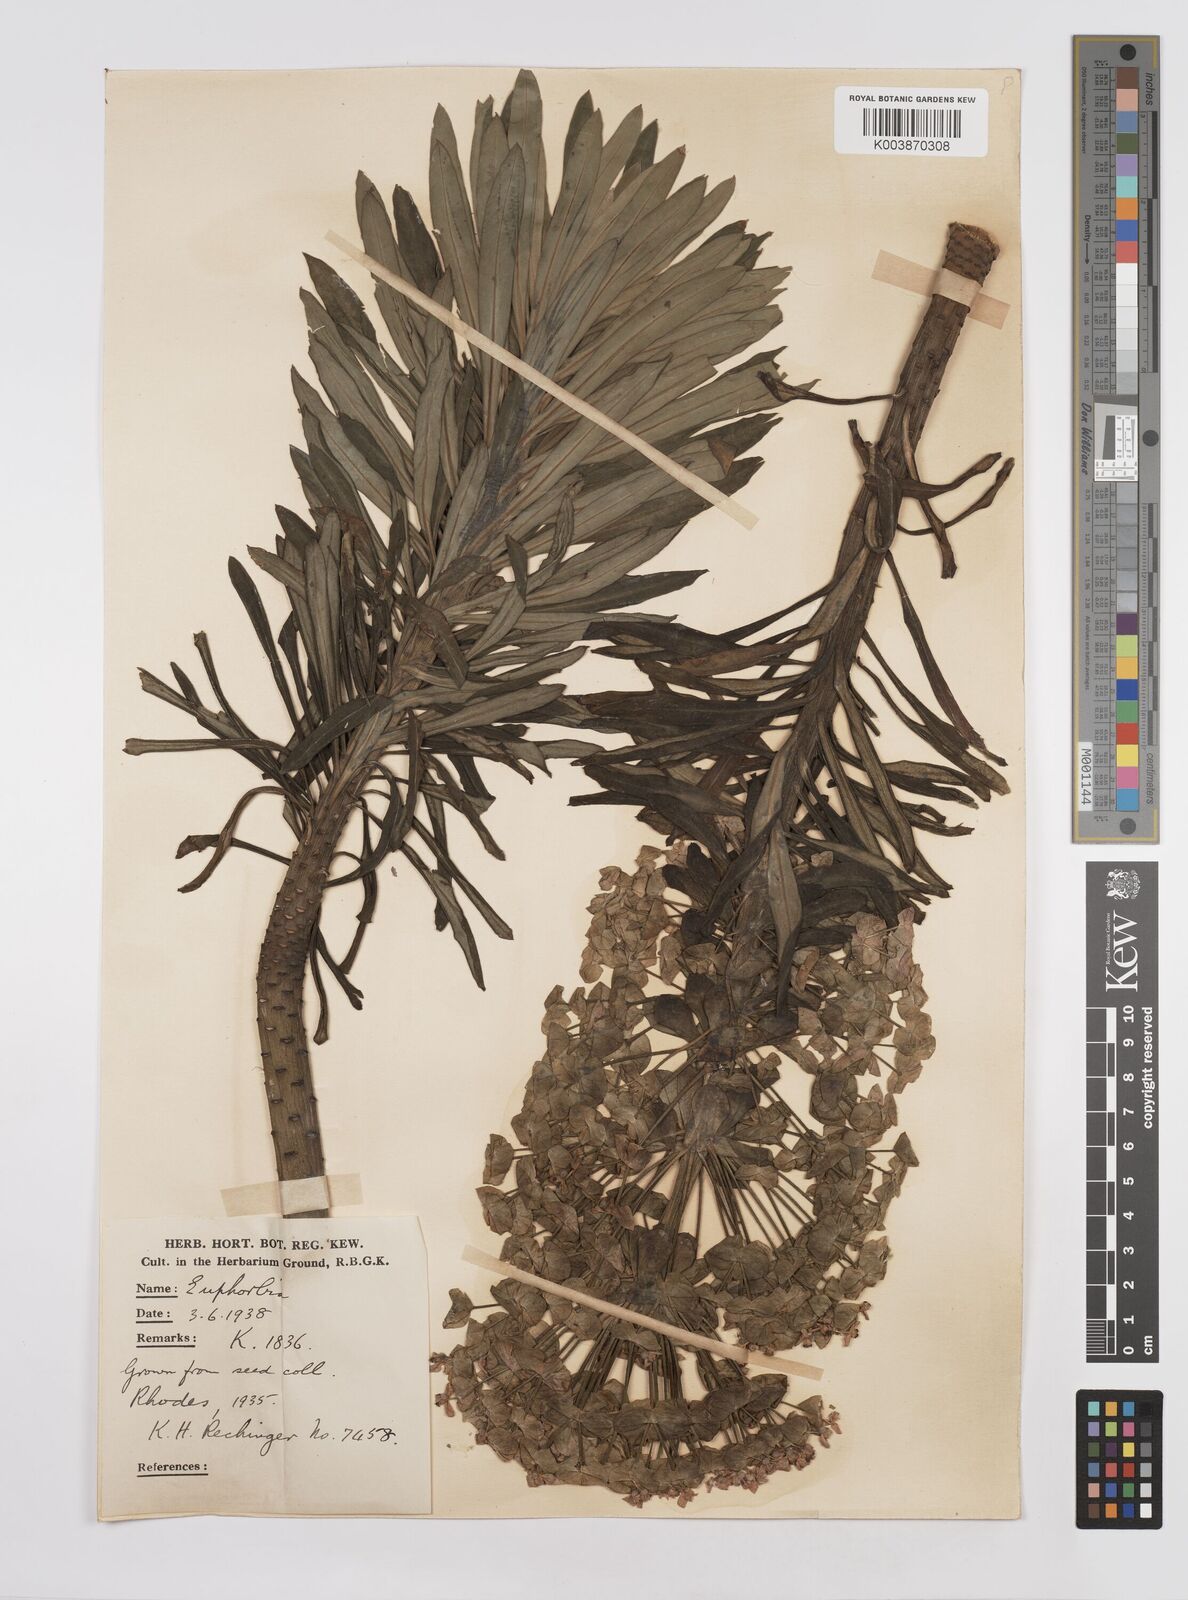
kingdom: Plantae
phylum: Tracheophyta
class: Magnoliopsida
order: Malpighiales
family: Euphorbiaceae
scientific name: Euphorbiaceae
